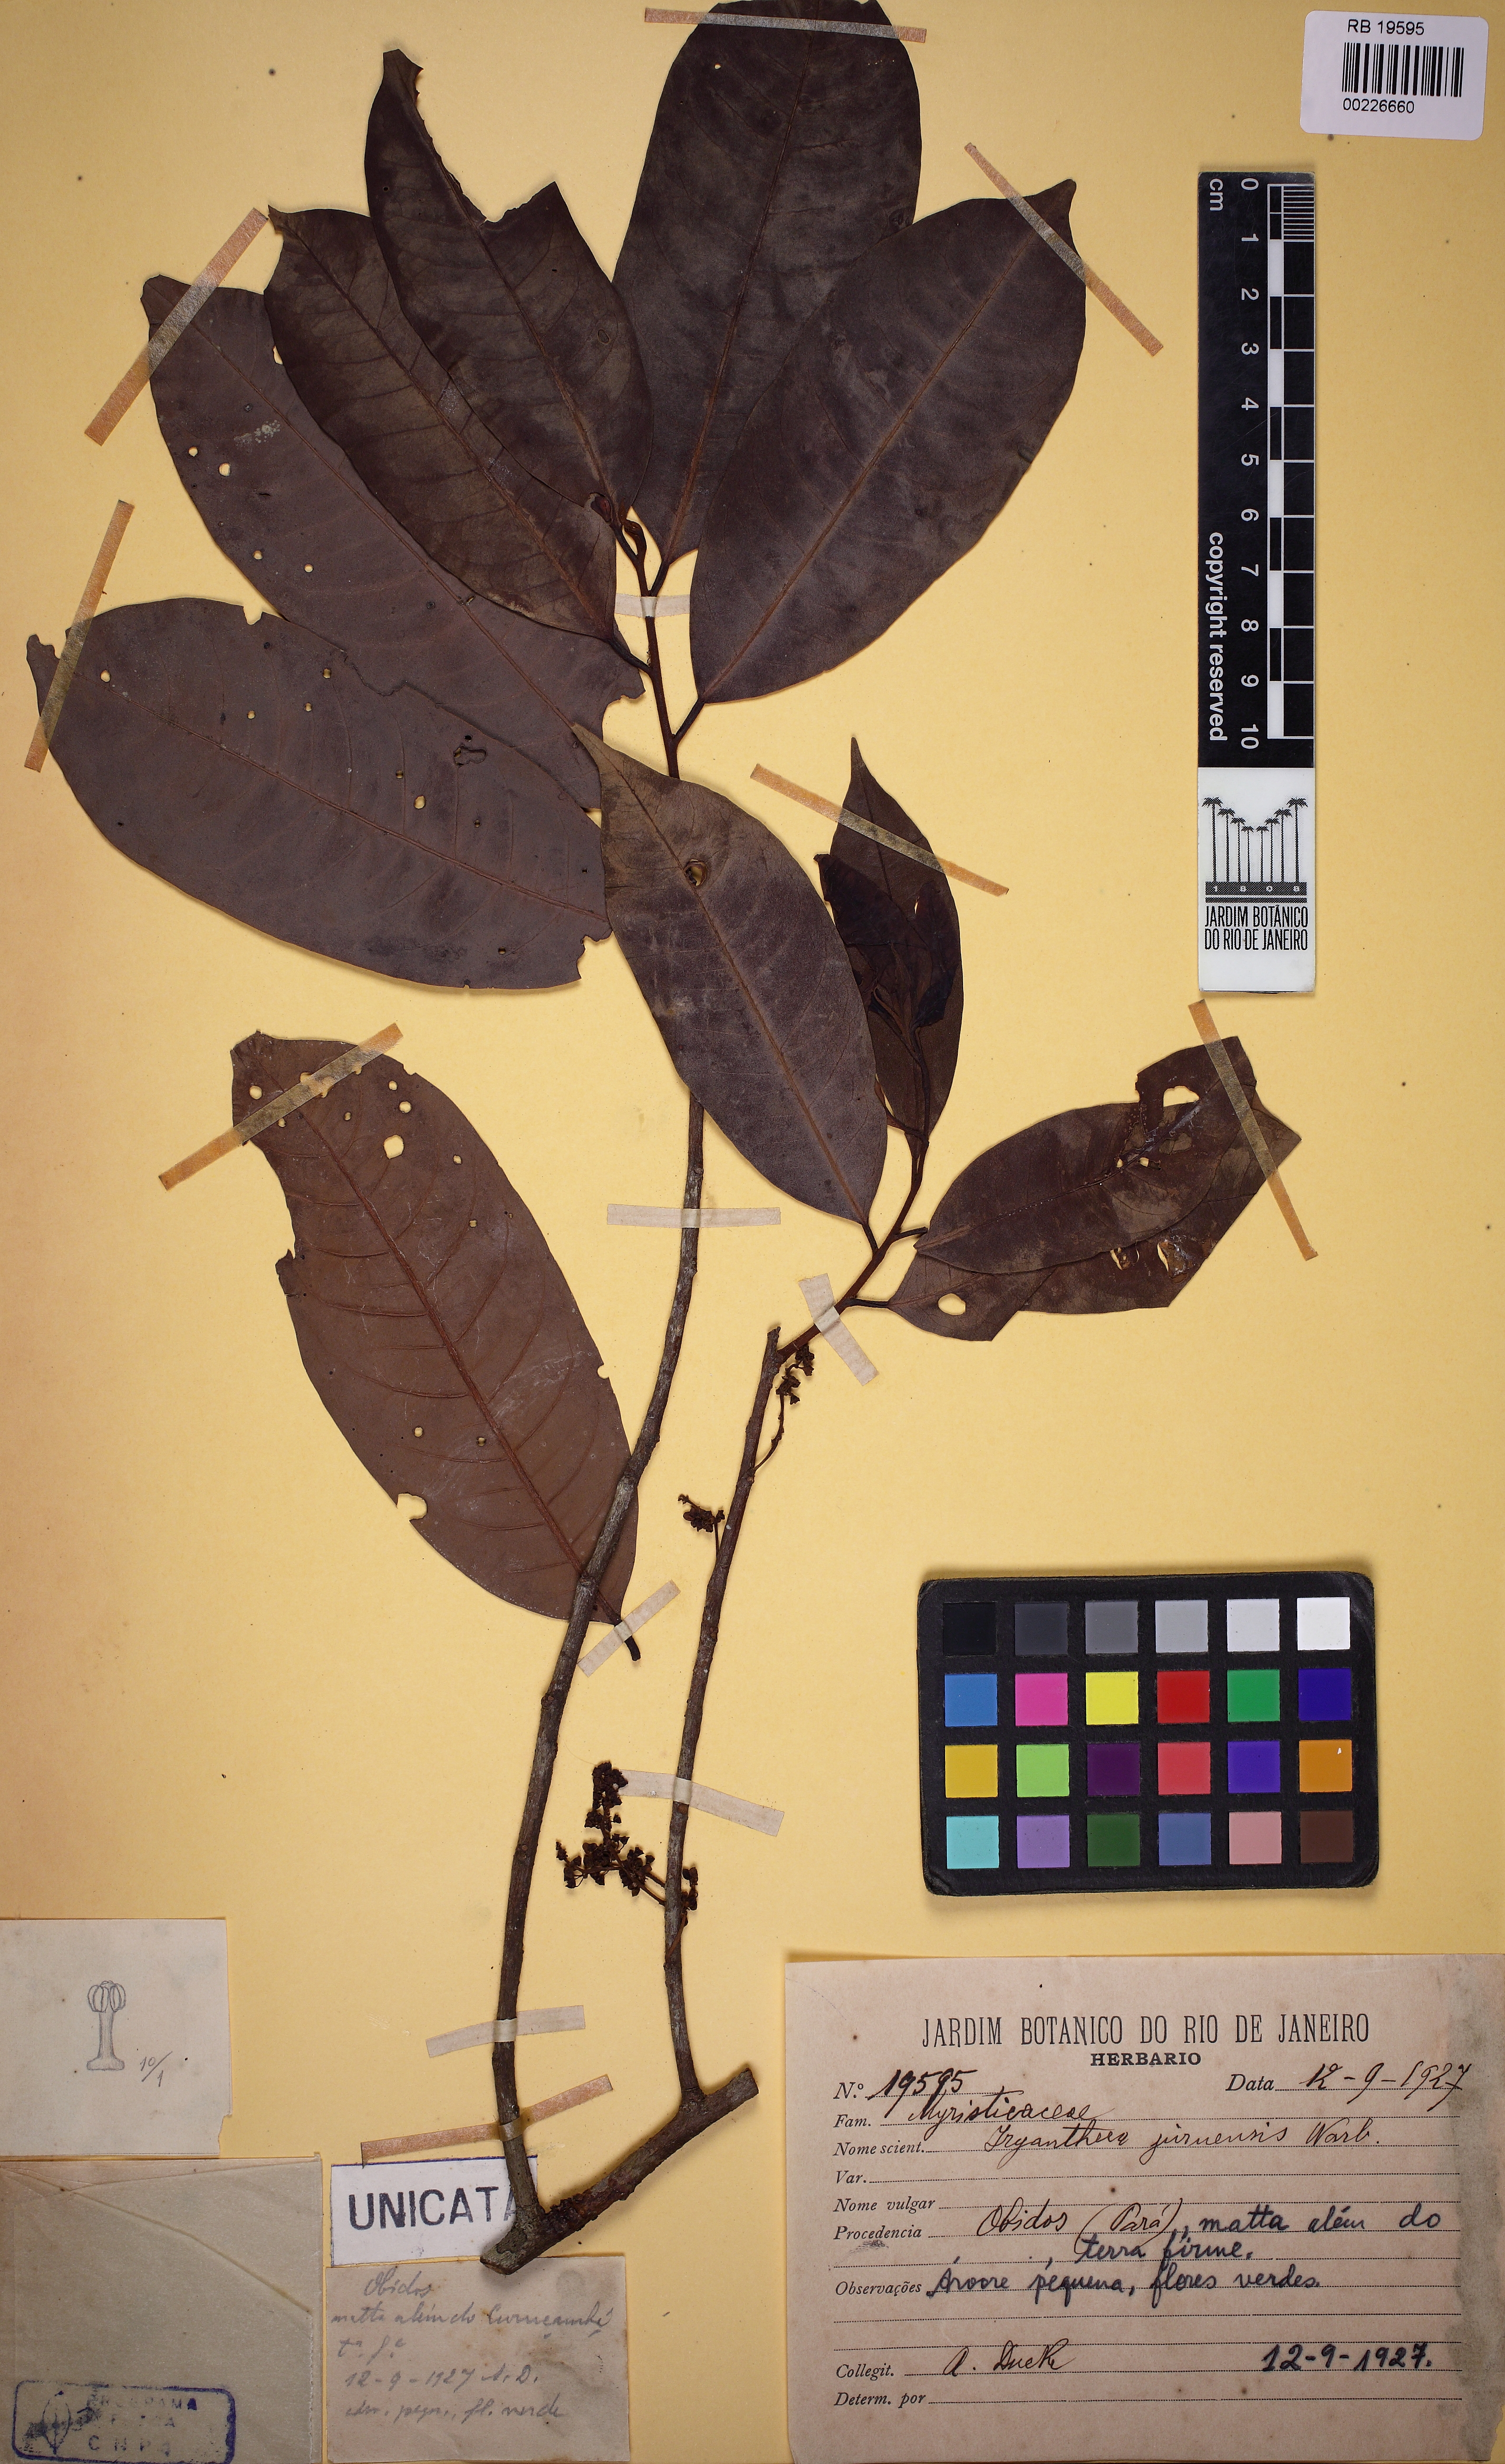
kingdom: Plantae
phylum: Tracheophyta
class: Magnoliopsida
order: Magnoliales
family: Myristicaceae
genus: Iryanthera
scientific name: Iryanthera juruensis
